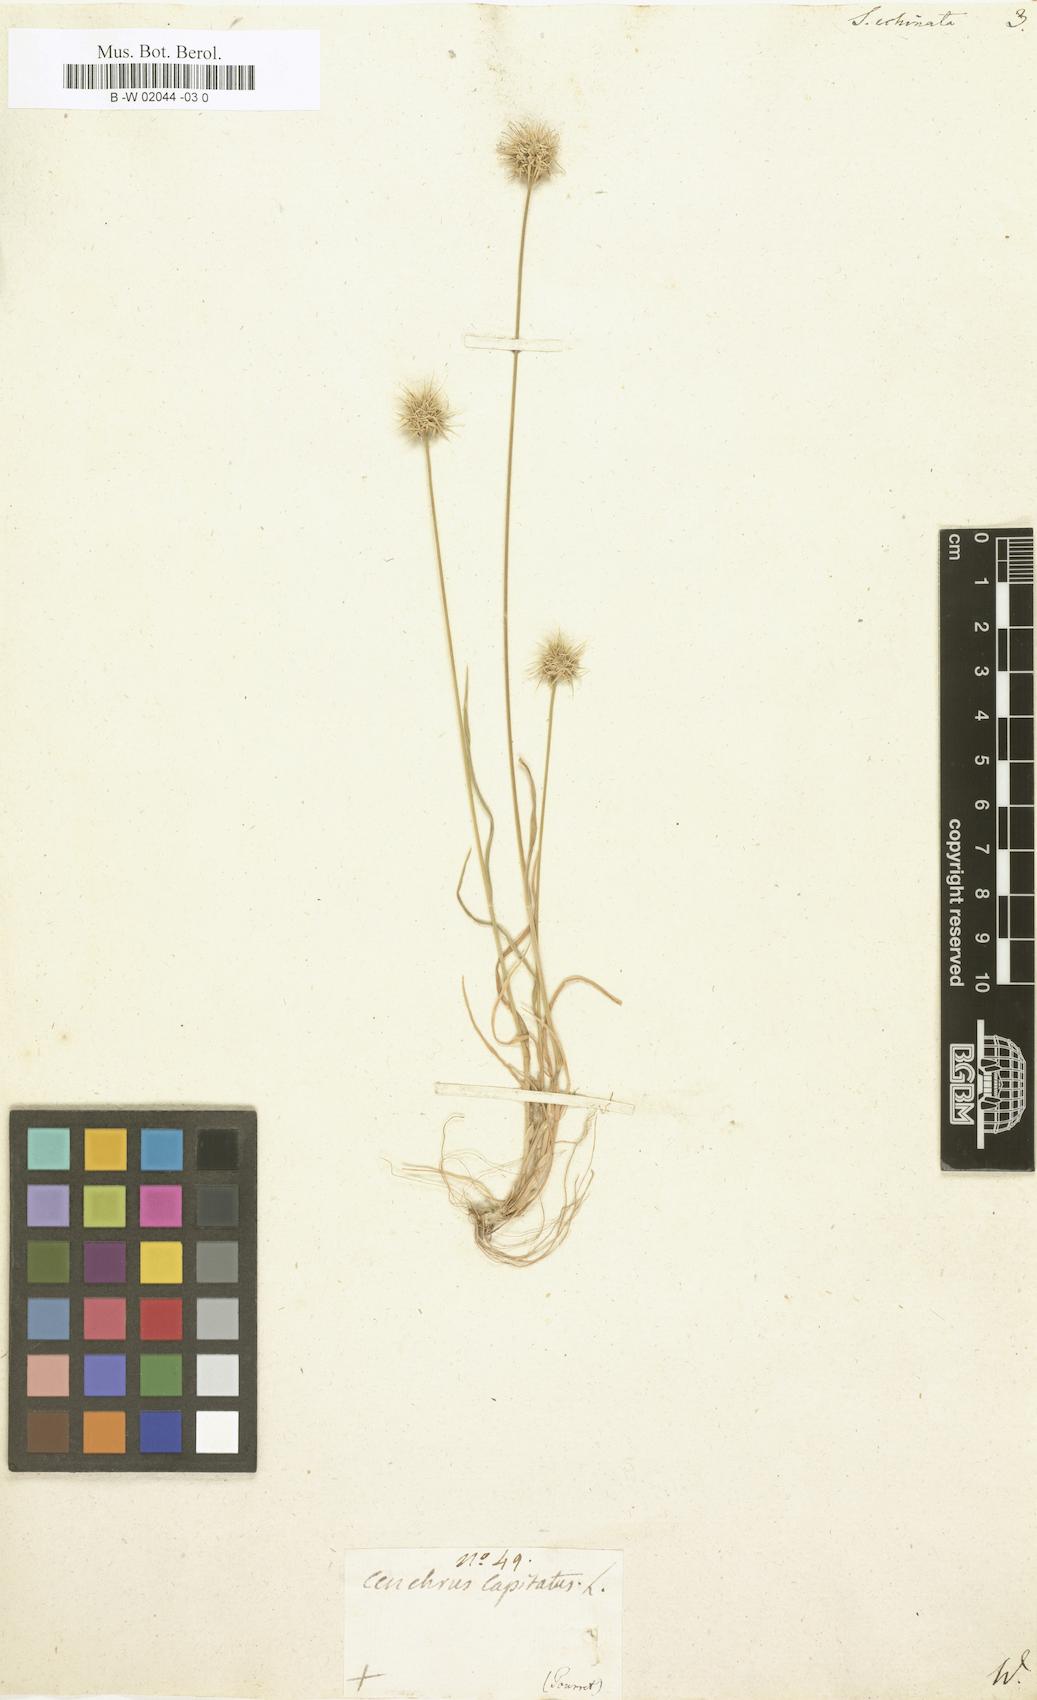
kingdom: Plantae
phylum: Tracheophyta
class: Liliopsida
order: Poales
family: Poaceae
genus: Ammochloa
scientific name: Ammochloa pungens
